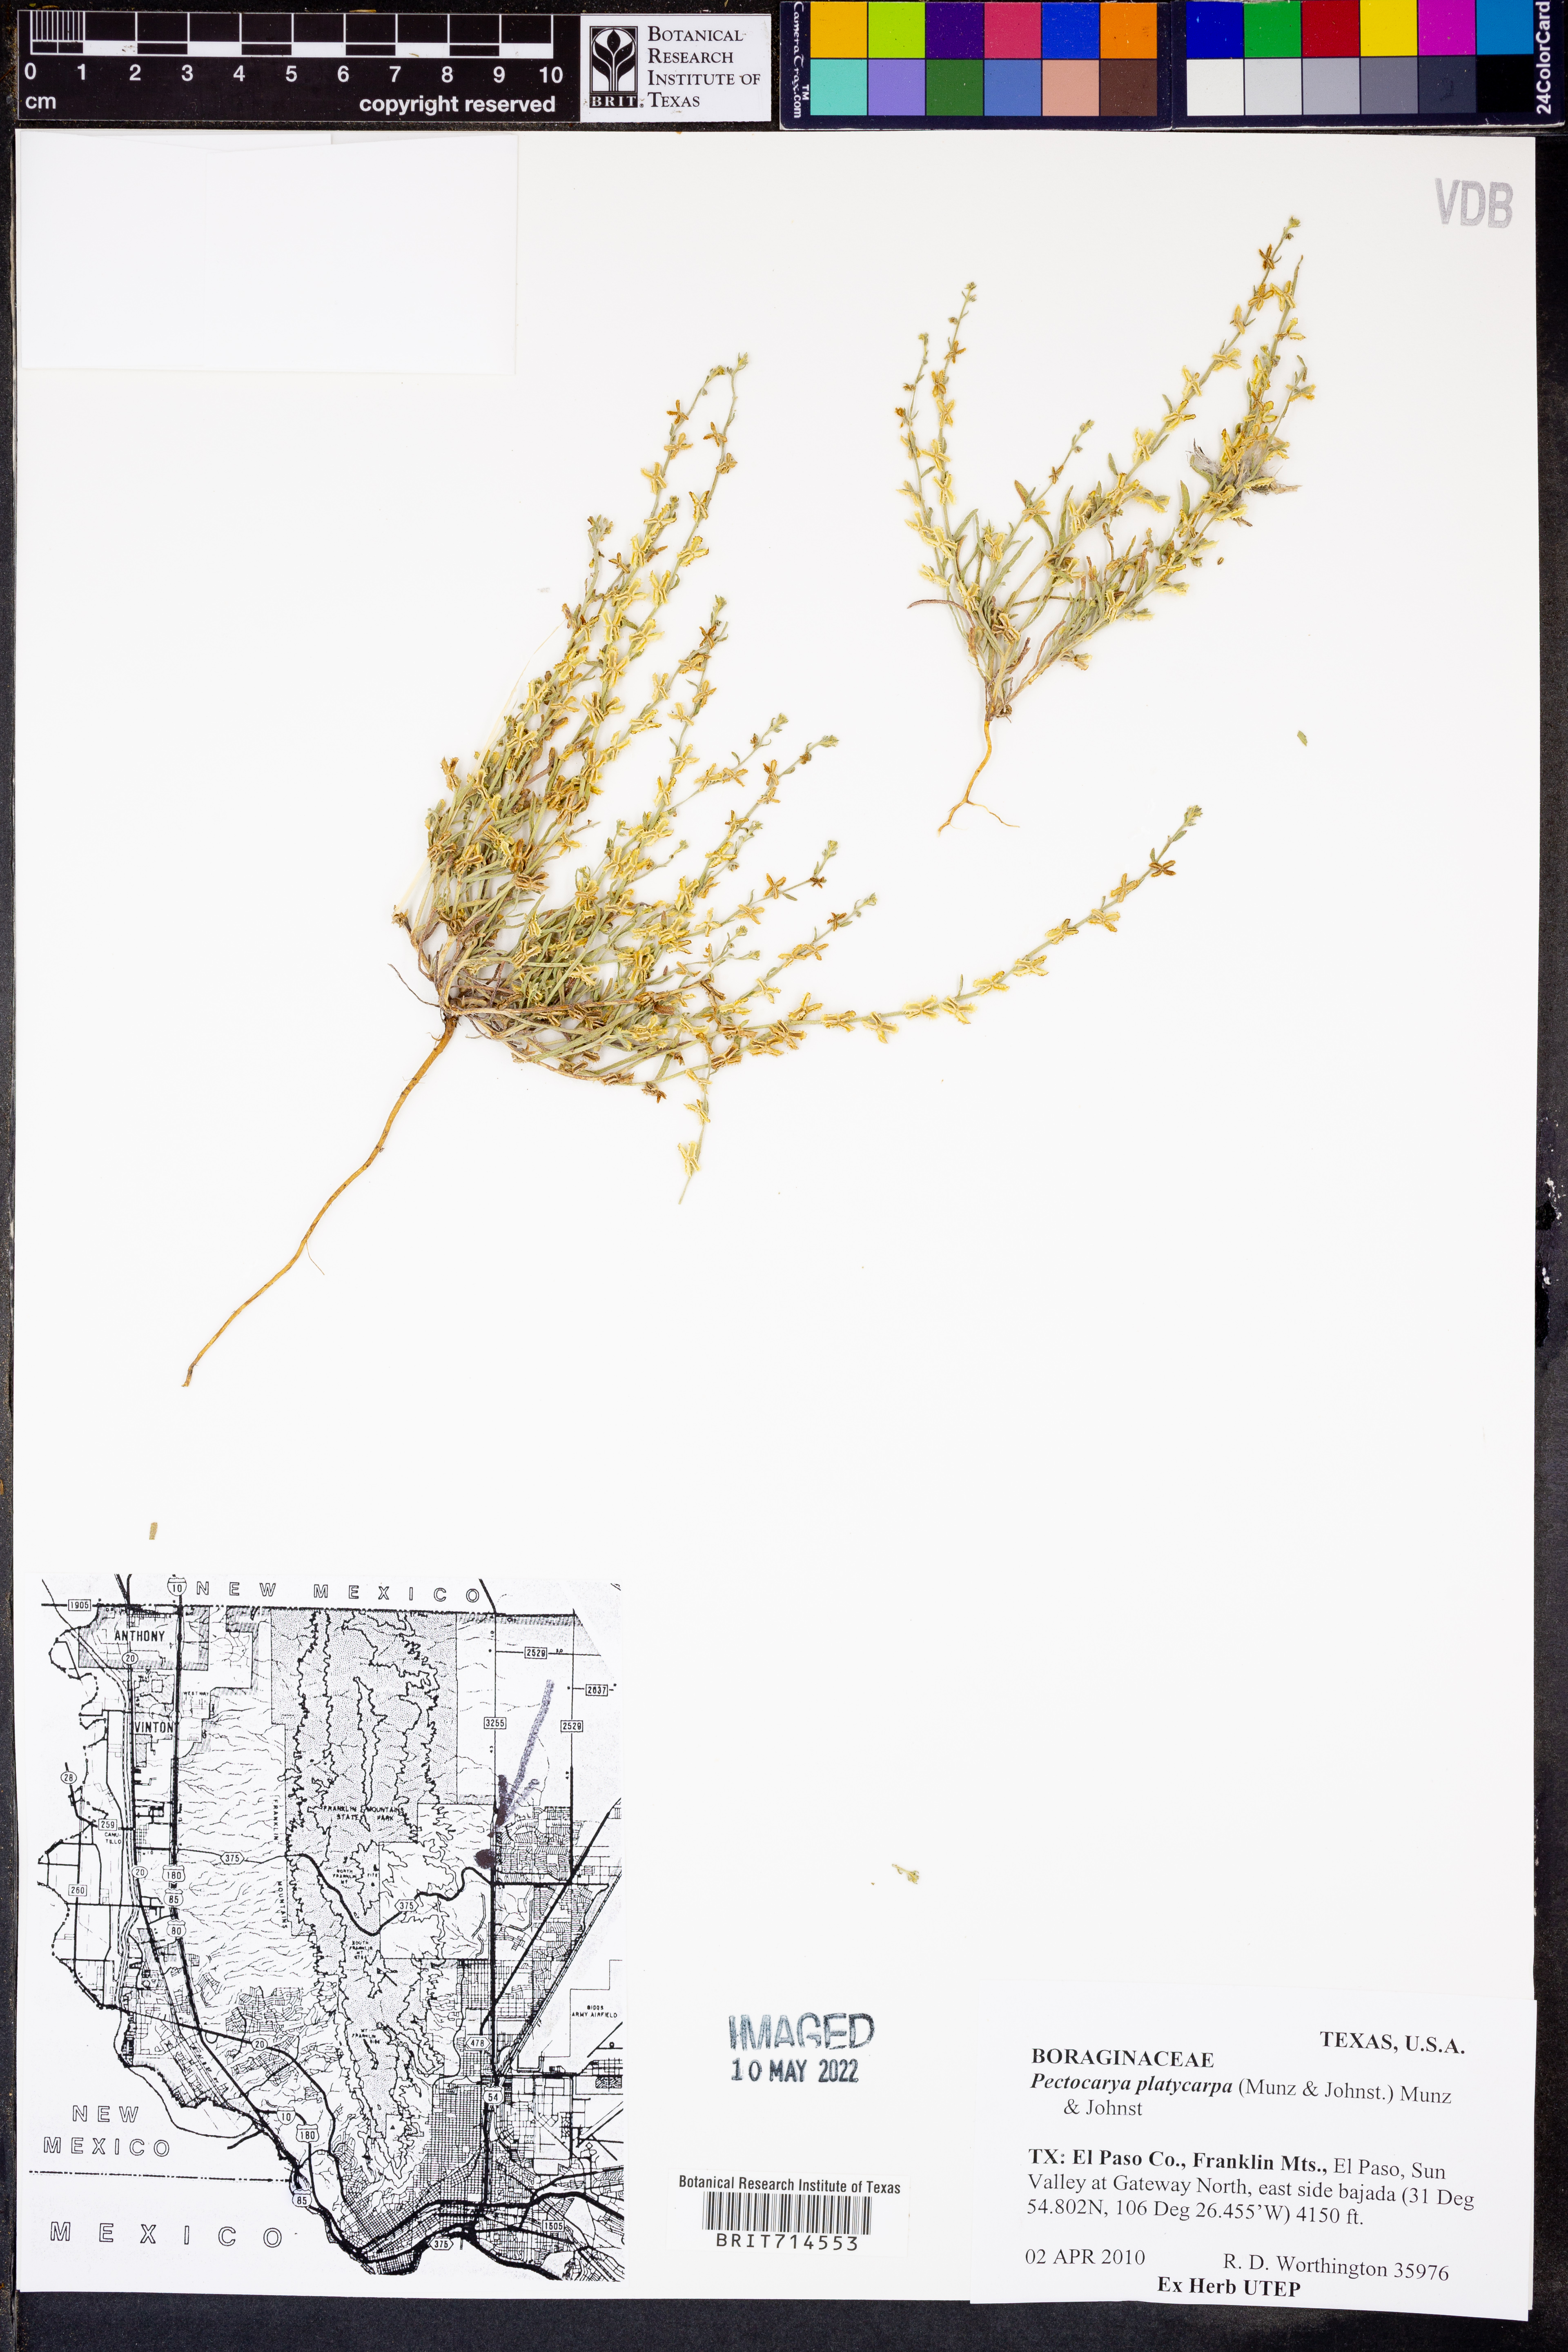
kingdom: Plantae
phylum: Tracheophyta
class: Magnoliopsida
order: Boraginales
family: Boraginaceae
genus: Pectocarya
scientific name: Pectocarya platycarpa
